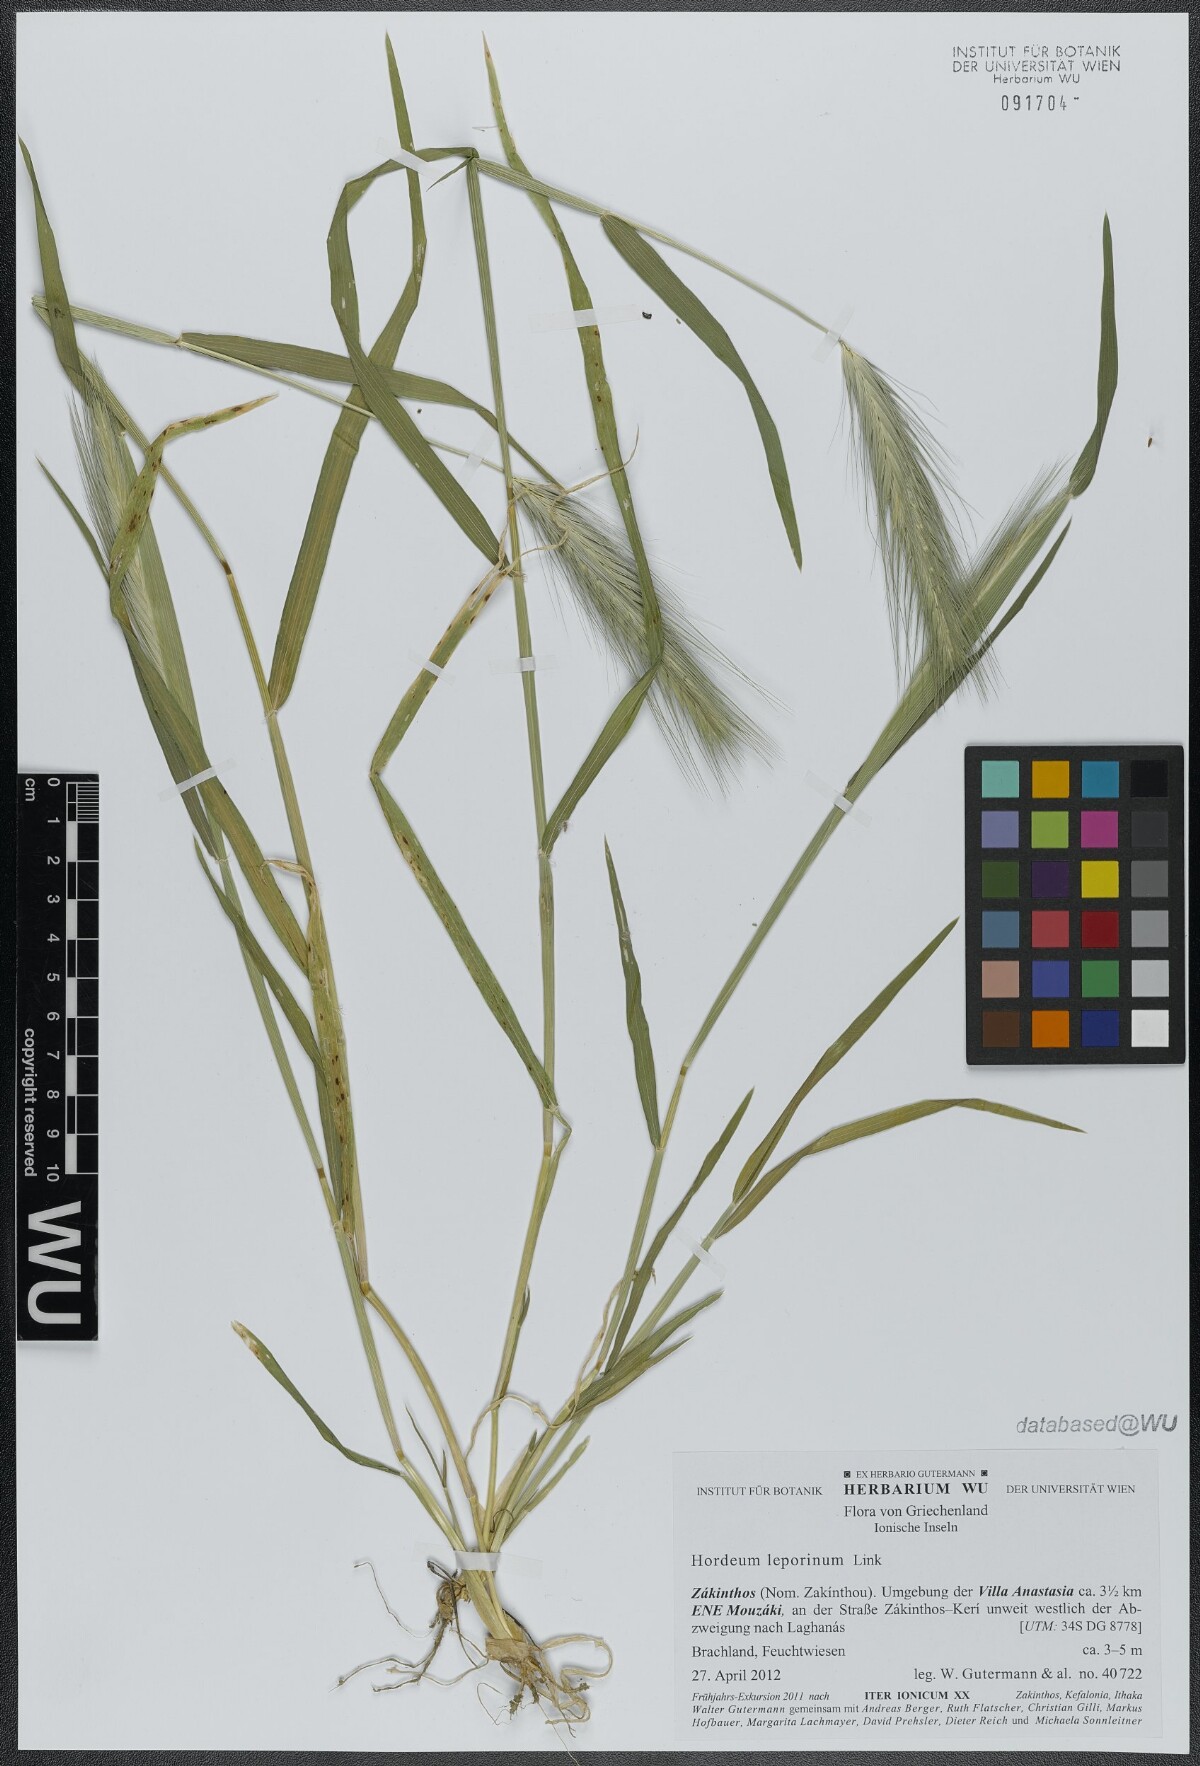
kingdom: Plantae
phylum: Tracheophyta
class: Liliopsida
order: Poales
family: Poaceae
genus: Hordeum
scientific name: Hordeum murinum
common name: Wall barley
